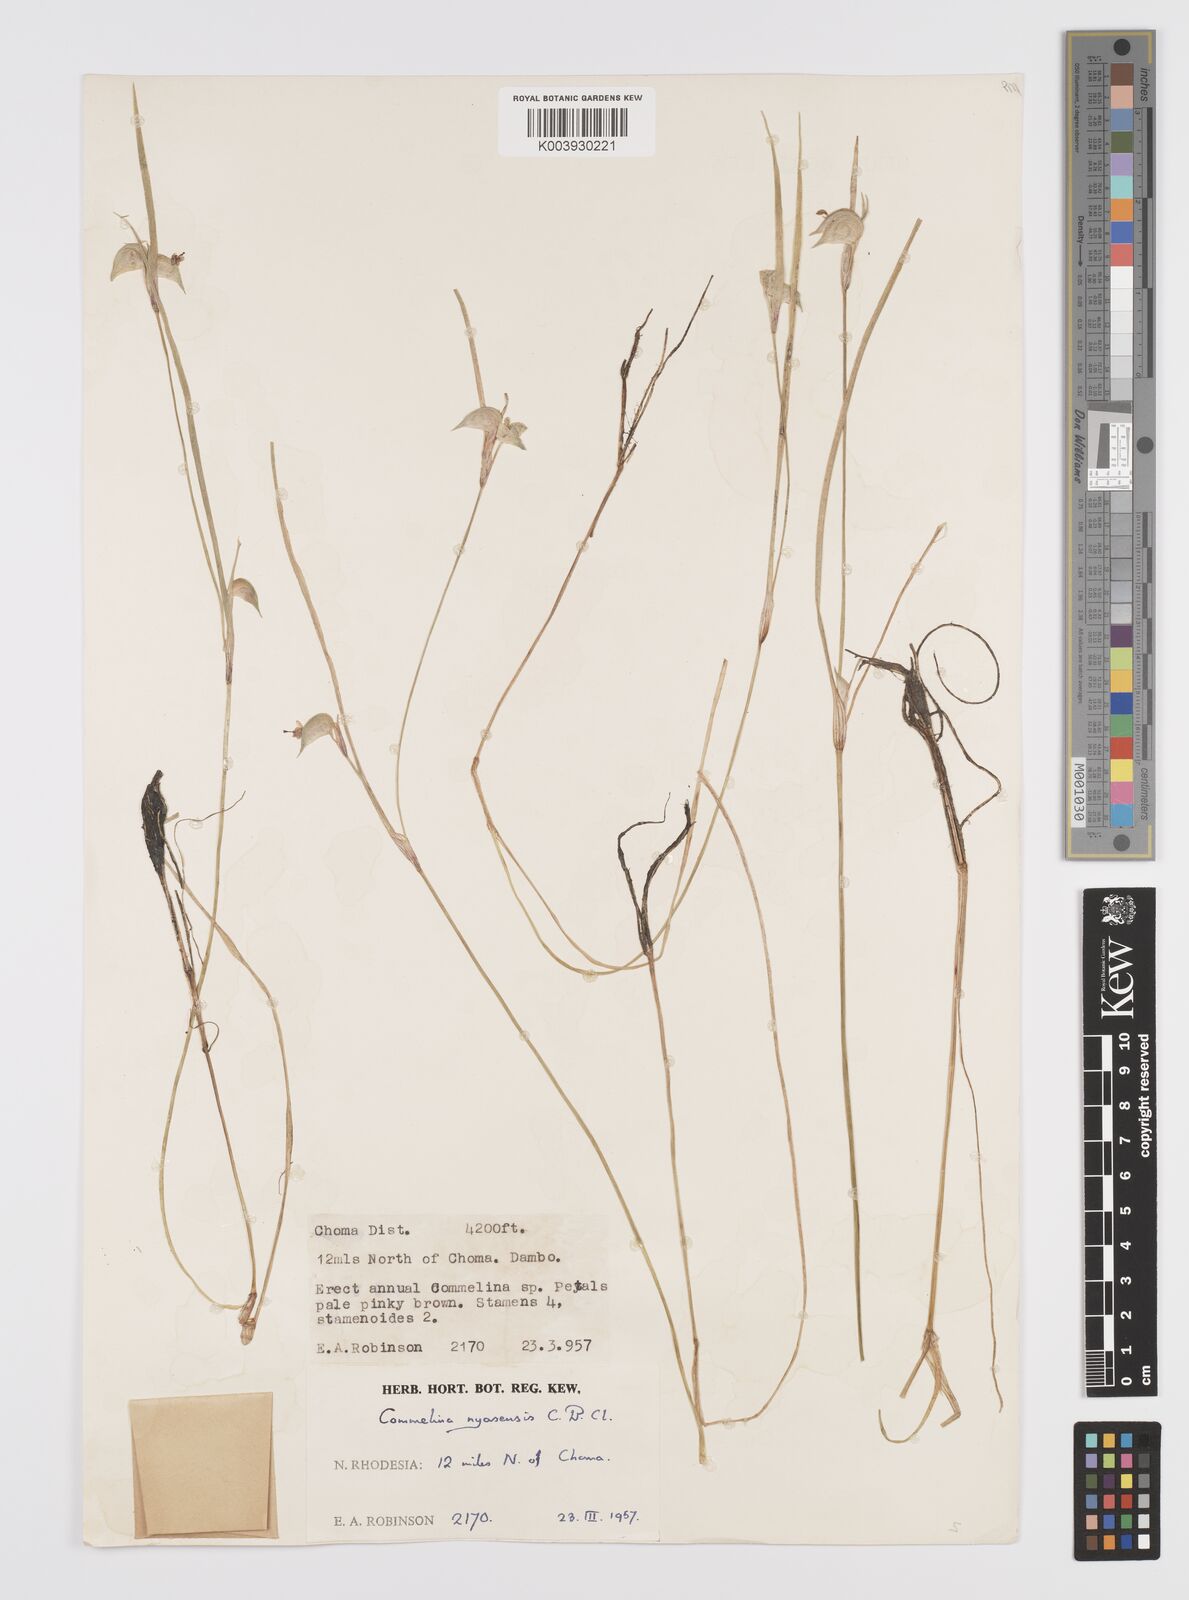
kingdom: Plantae
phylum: Tracheophyta
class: Liliopsida
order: Commelinales
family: Commelinaceae
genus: Commelina
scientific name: Commelina nyasensis
